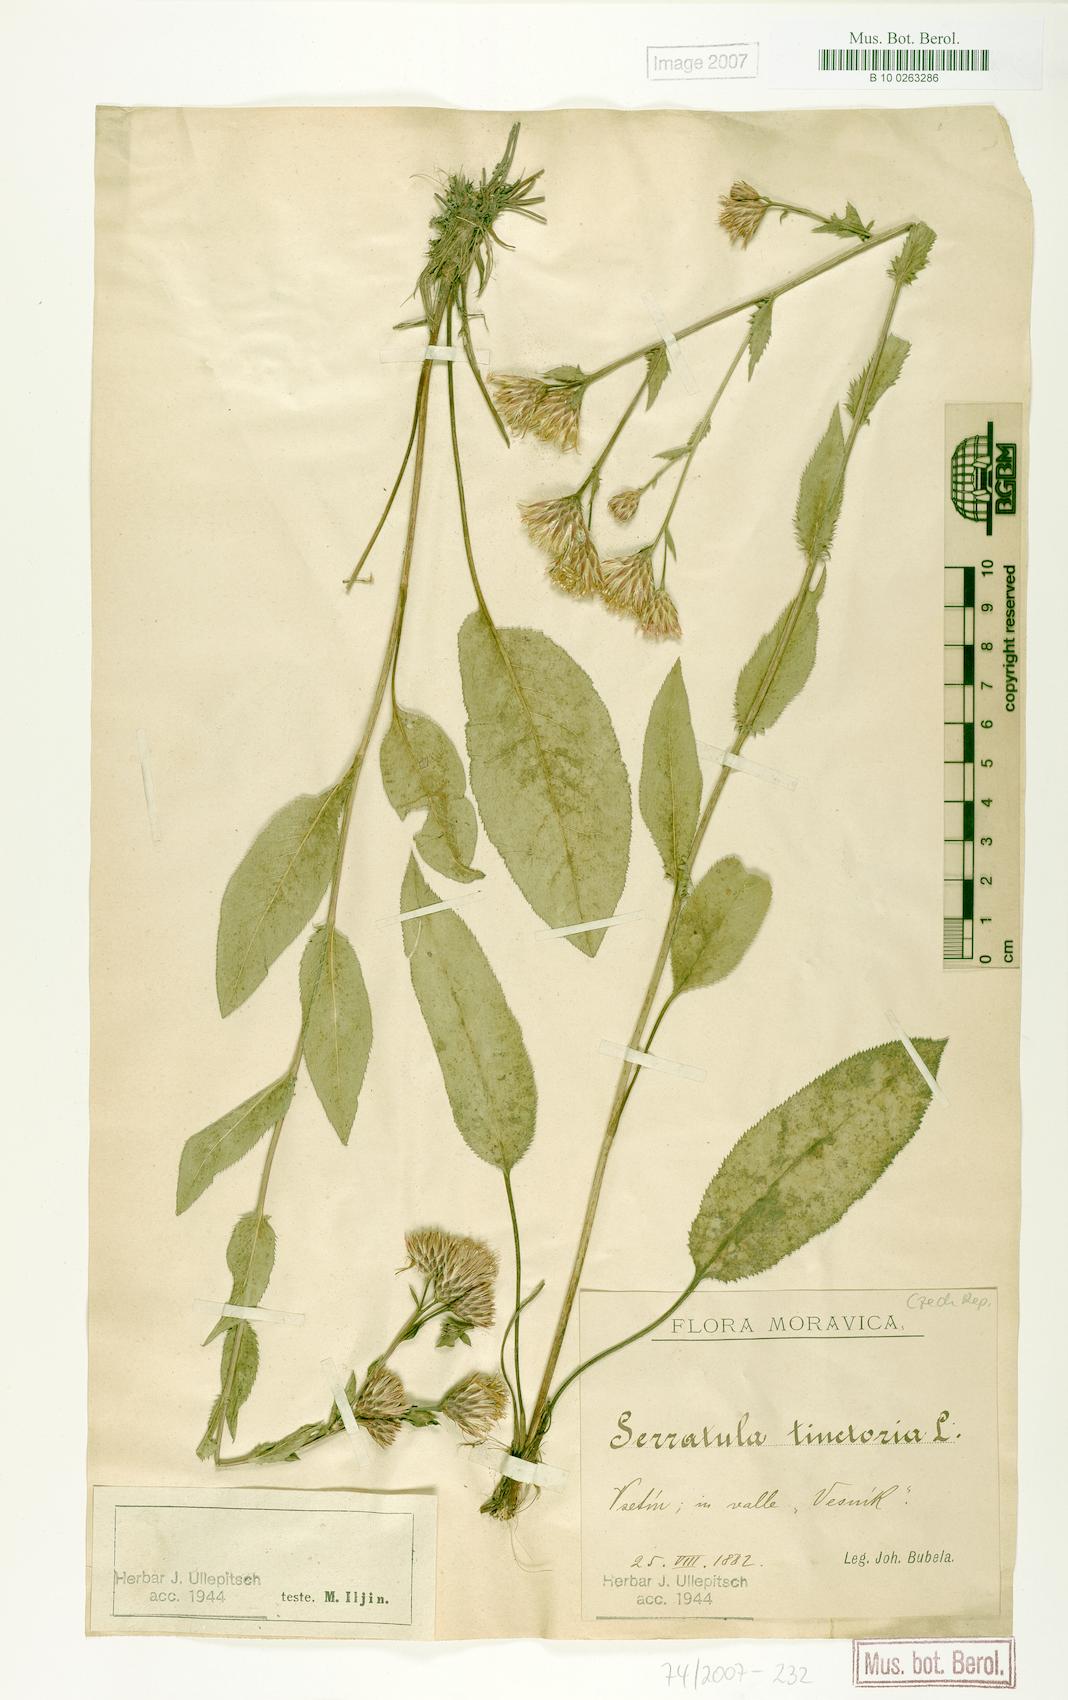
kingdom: Plantae
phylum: Tracheophyta
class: Magnoliopsida
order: Asterales
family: Asteraceae
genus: Serratula
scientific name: Serratula tinctoria
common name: Saw-wort
